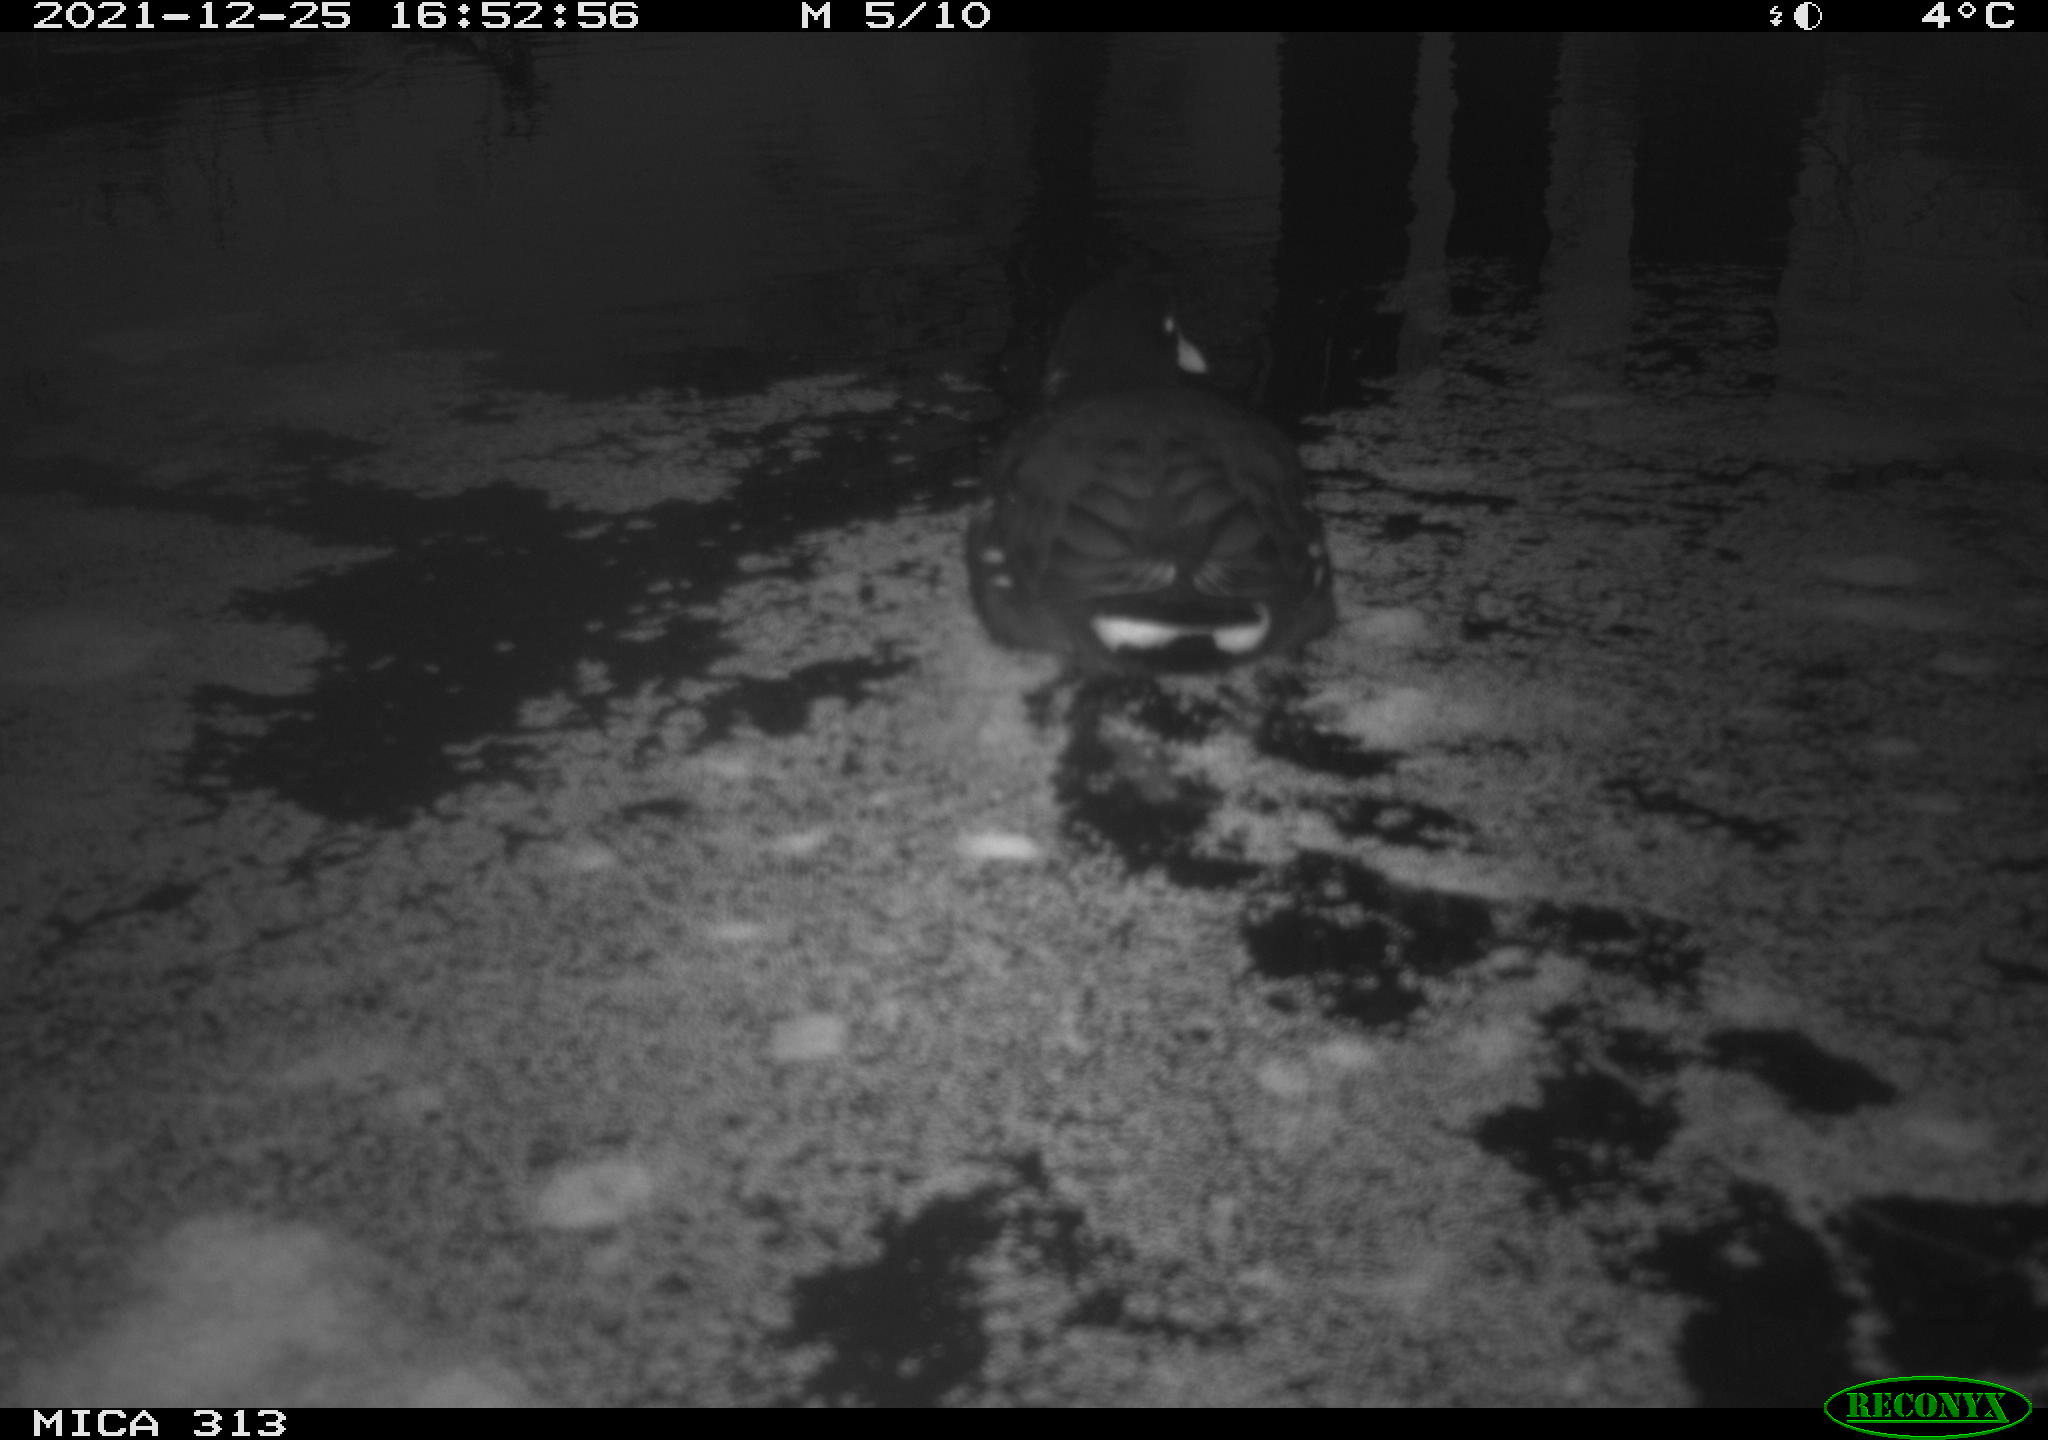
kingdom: Animalia
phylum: Chordata
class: Aves
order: Gruiformes
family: Rallidae
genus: Gallinula
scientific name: Gallinula chloropus
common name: Common moorhen
